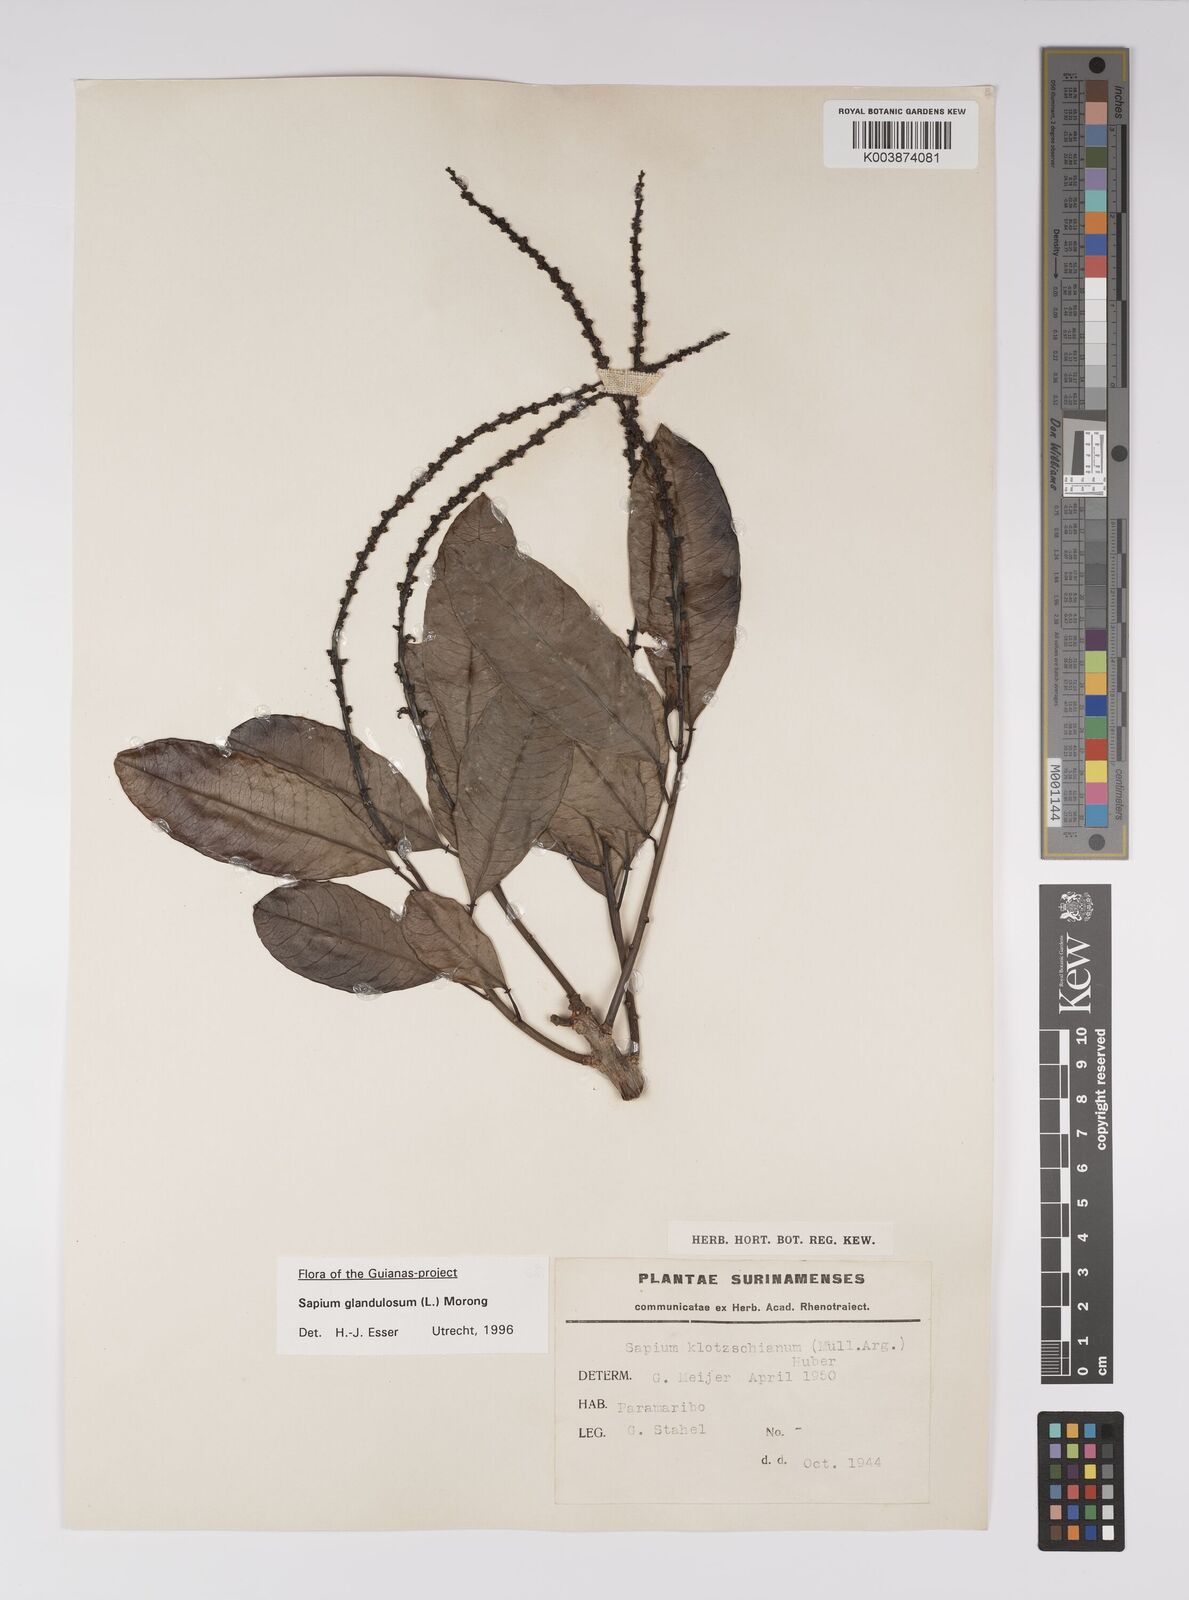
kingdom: Plantae
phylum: Tracheophyta
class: Magnoliopsida
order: Malpighiales
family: Euphorbiaceae
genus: Sapium
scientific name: Sapium glandulosum
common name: Milktree
